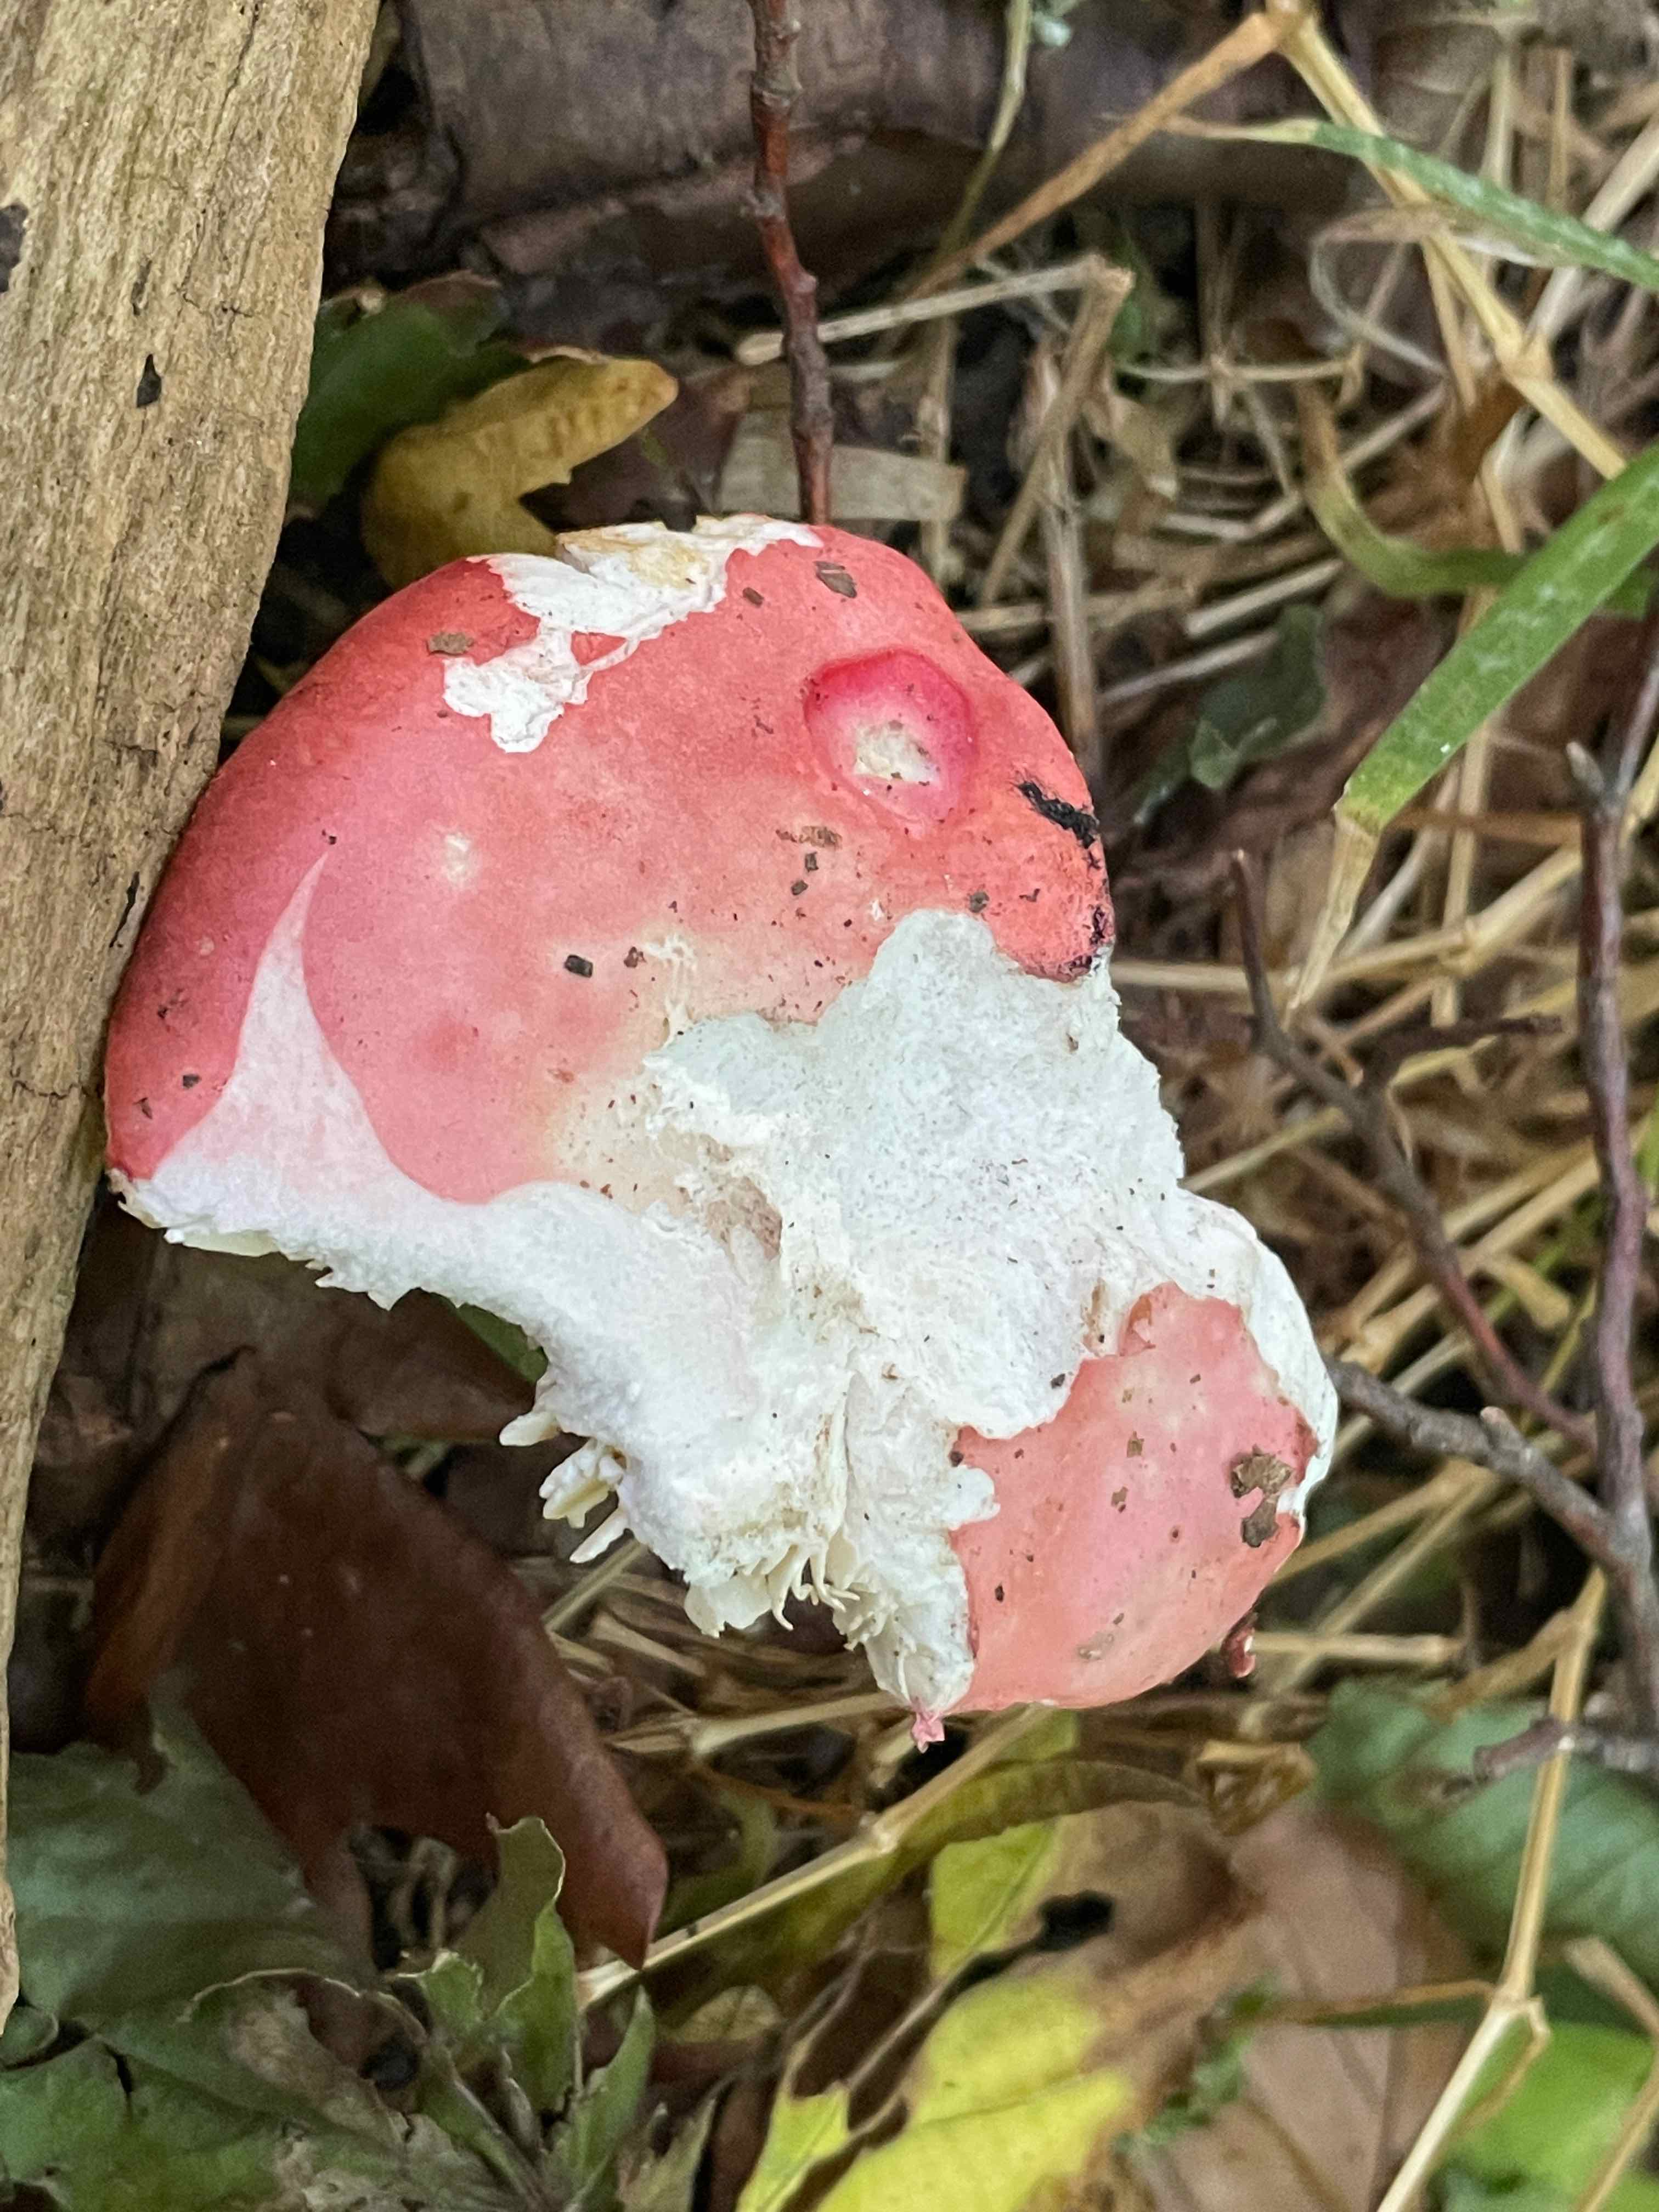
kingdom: Fungi
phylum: Basidiomycota
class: Agaricomycetes
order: Russulales
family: Russulaceae
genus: Russula
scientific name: Russula pseudointegra
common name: cinnoberrød skørhat
